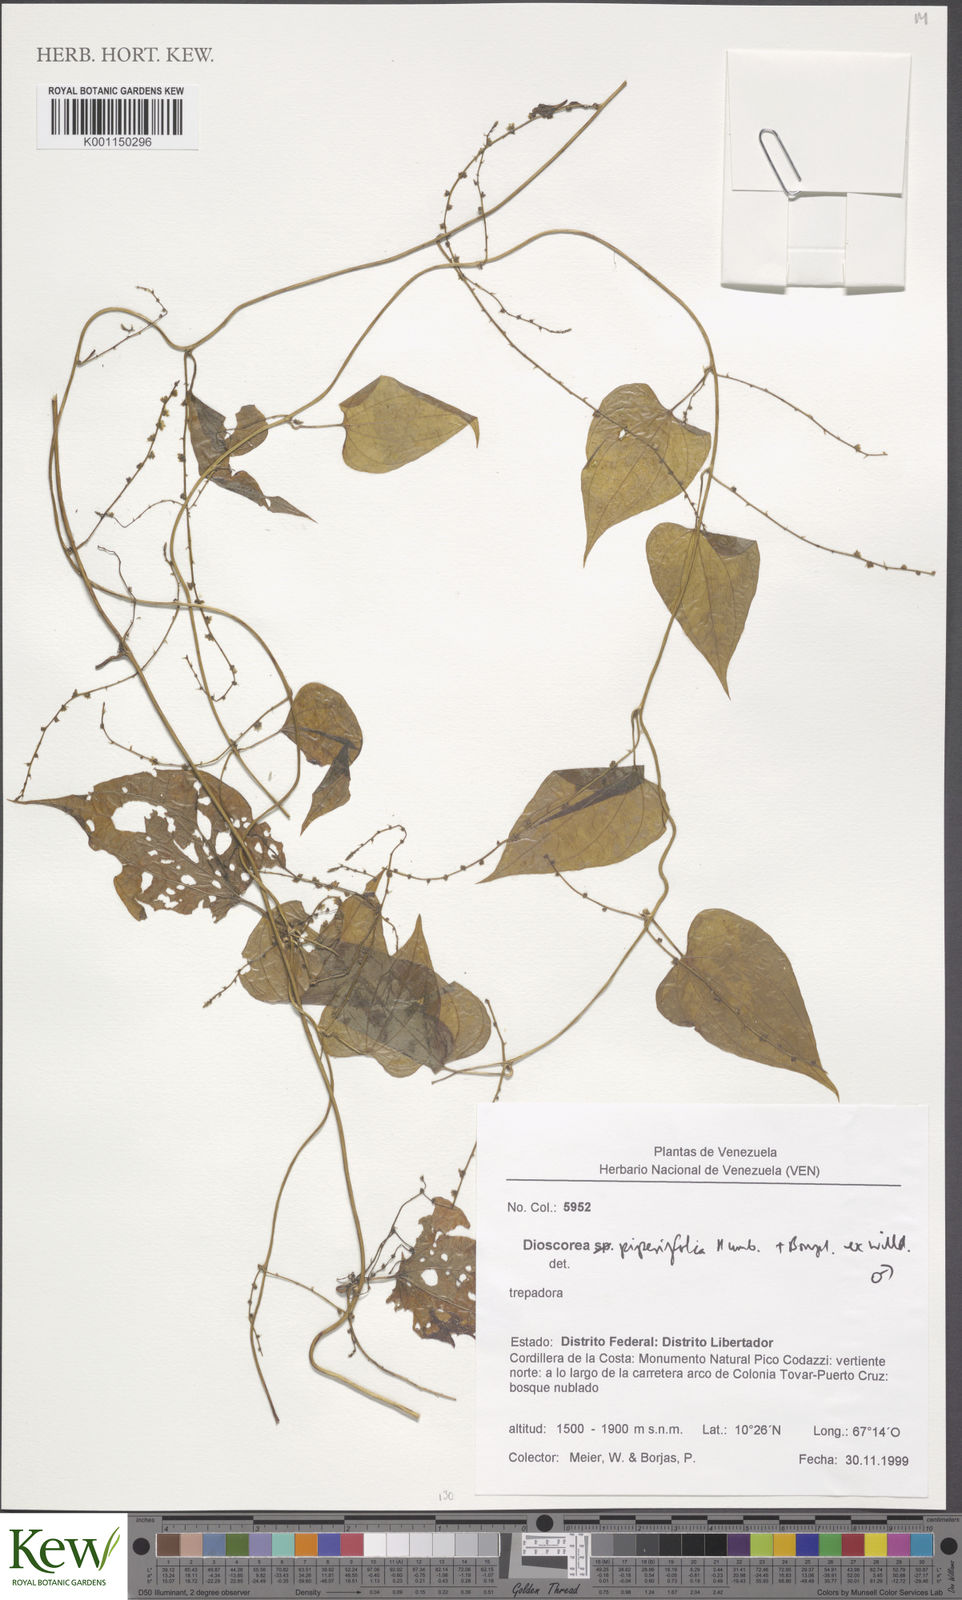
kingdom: Plantae
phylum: Tracheophyta
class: Liliopsida
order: Dioscoreales
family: Dioscoreaceae
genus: Dioscorea
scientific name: Dioscorea polygonoides
